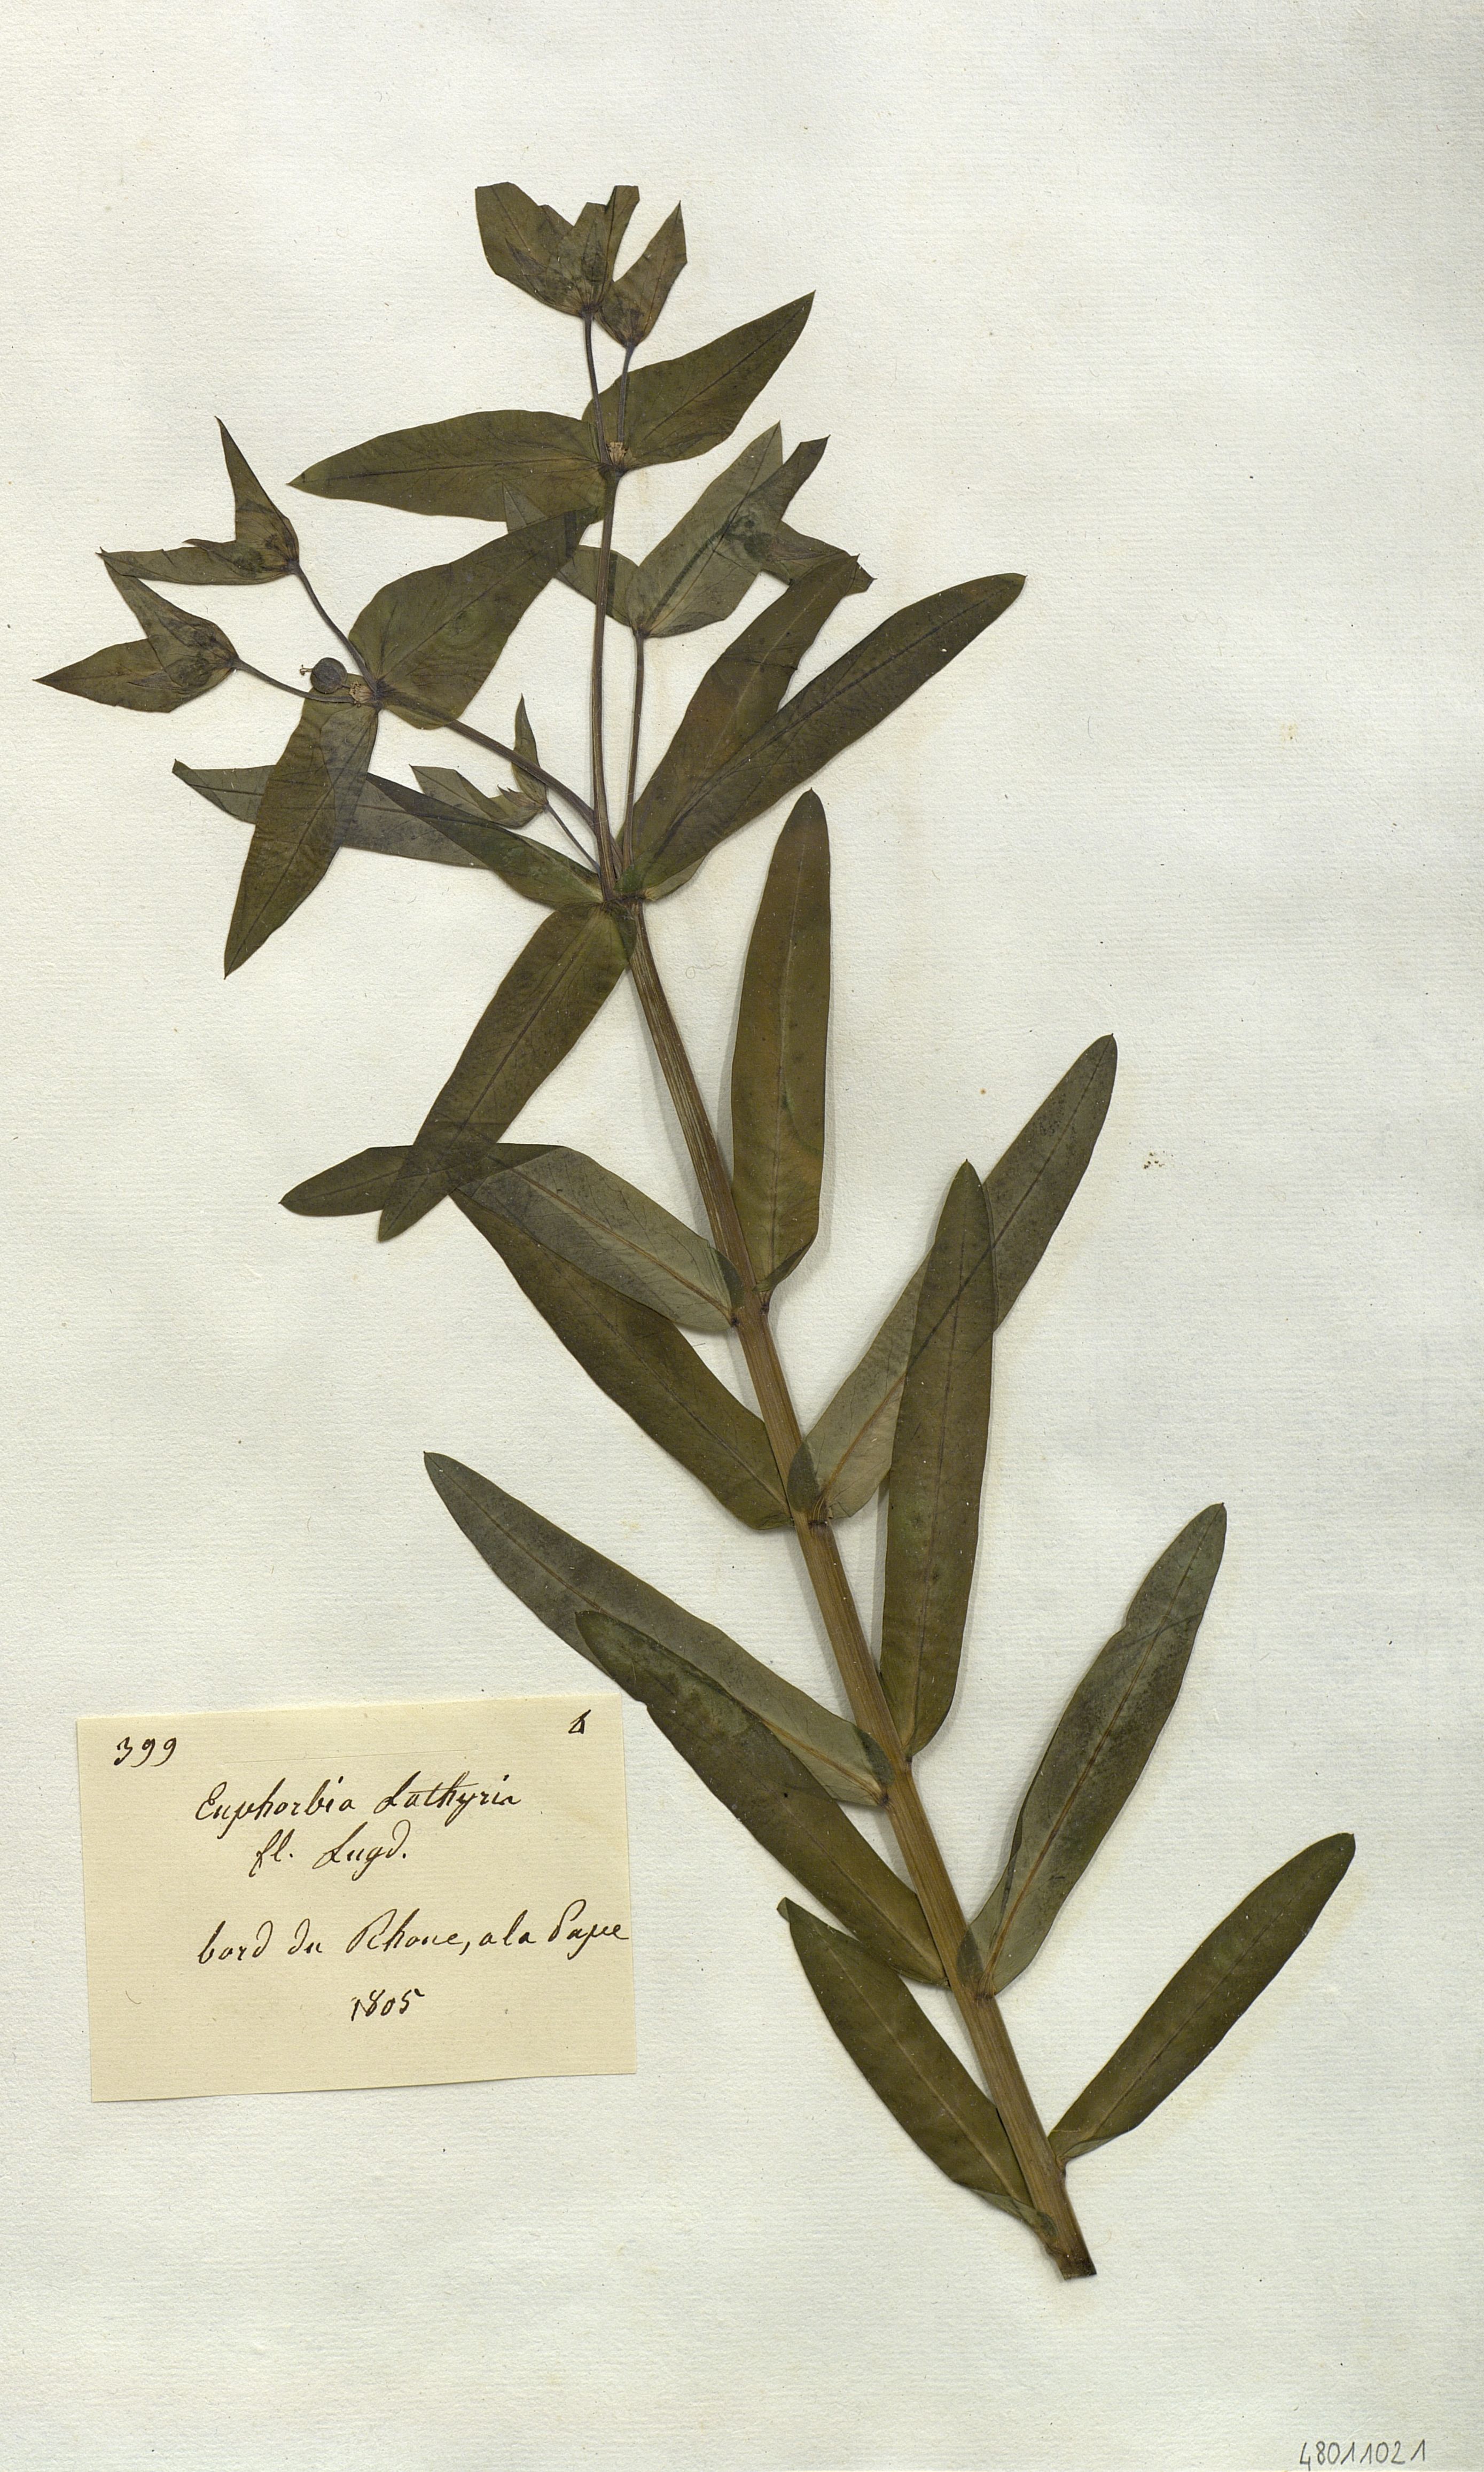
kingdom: Plantae
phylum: Tracheophyta
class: Magnoliopsida
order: Malpighiales
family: Euphorbiaceae
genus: Euphorbia
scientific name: Euphorbia lathyris
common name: Caper spurge
